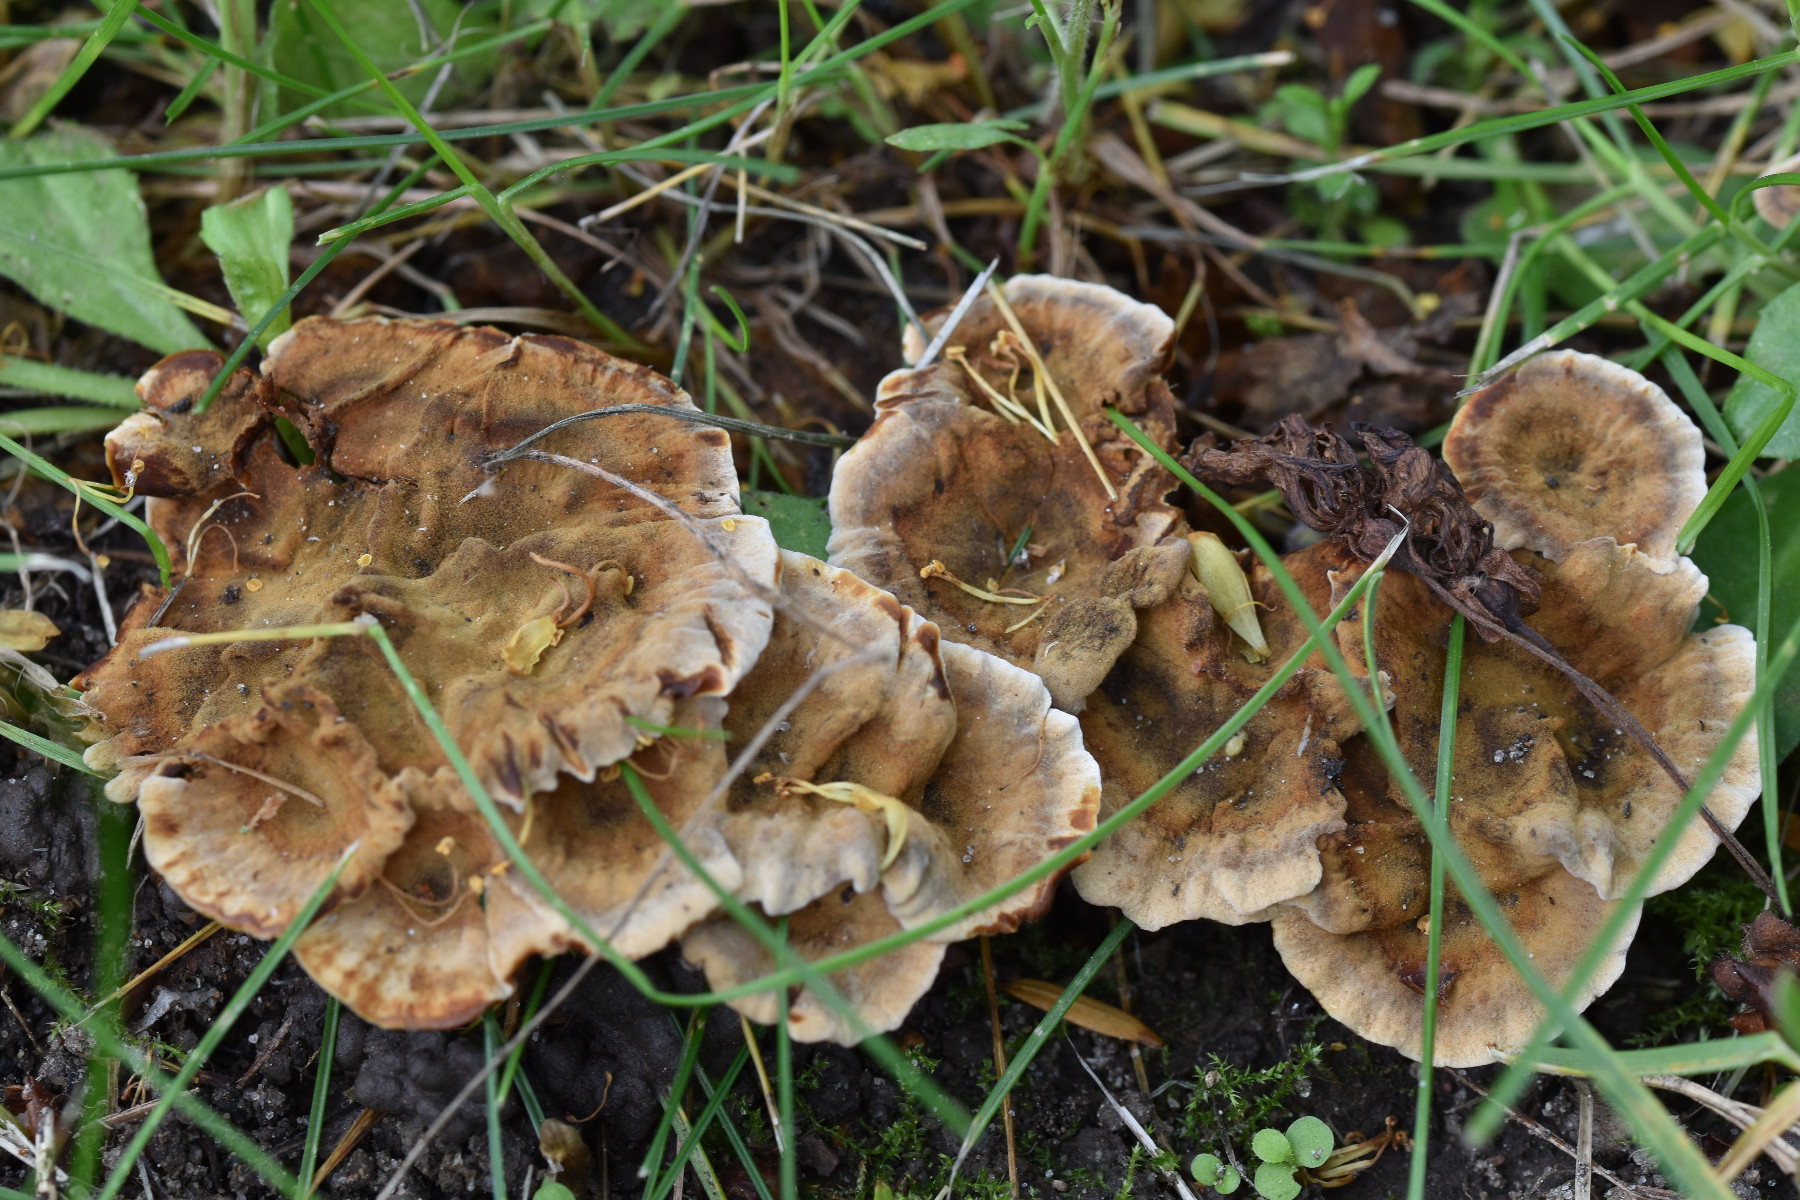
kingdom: Fungi
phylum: Basidiomycota
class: Agaricomycetes
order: Hymenochaetales
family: Hymenochaetaceae
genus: Coltricia
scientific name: Coltricia confluens
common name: park-sandporesvamp
